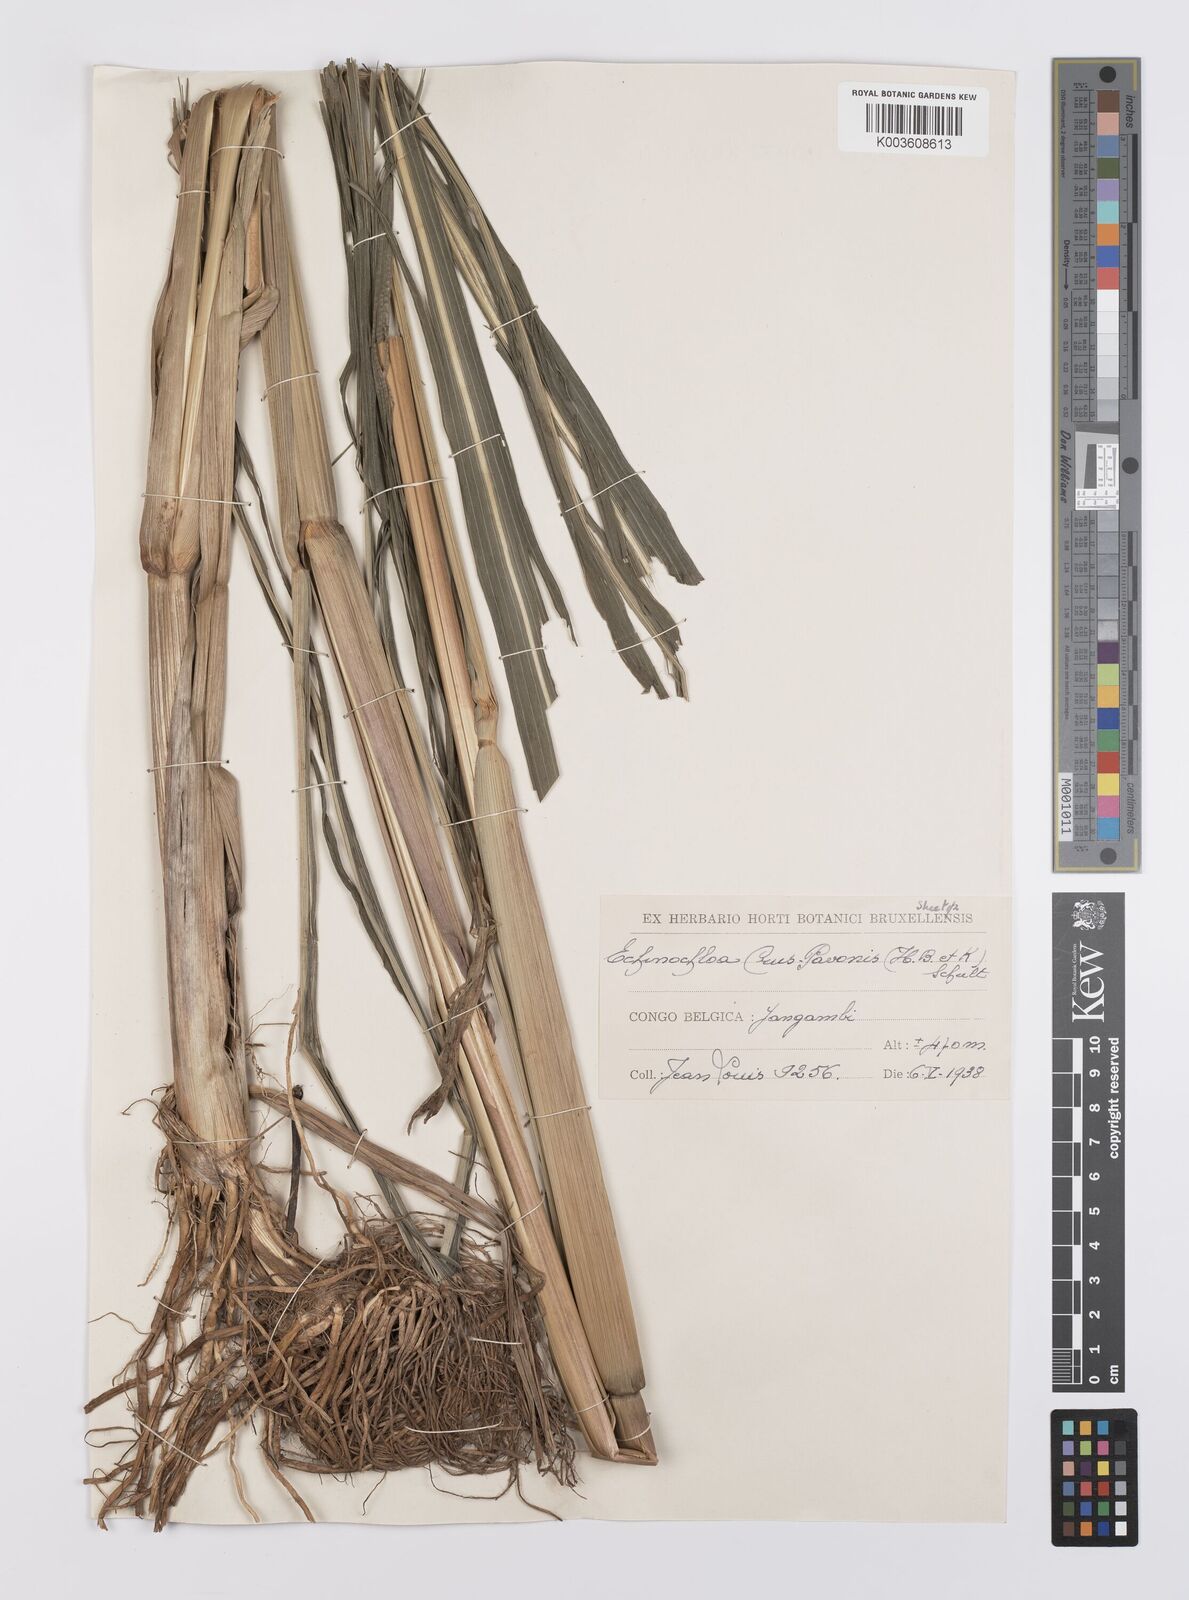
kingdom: Plantae
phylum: Tracheophyta
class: Liliopsida
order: Poales
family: Poaceae
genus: Echinochloa
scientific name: Echinochloa crus-pavonis
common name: Gulf cockspur grass
